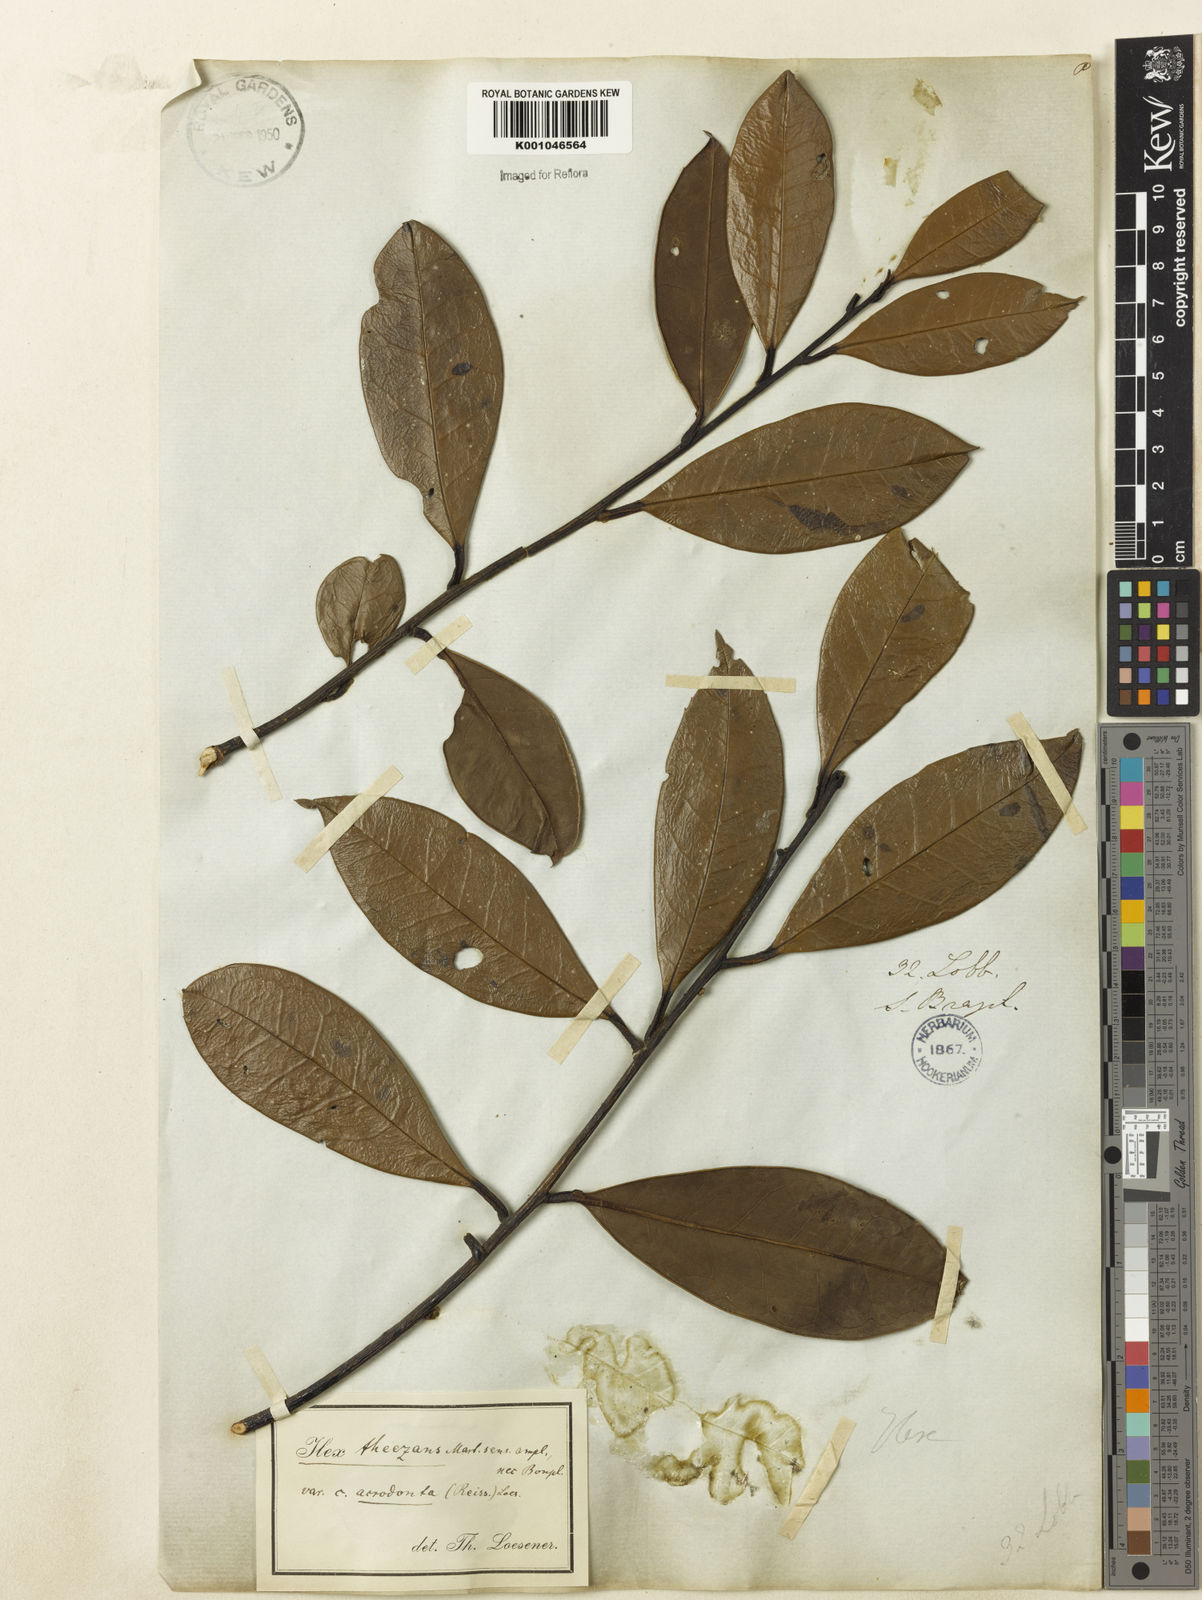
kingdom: Plantae
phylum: Tracheophyta
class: Magnoliopsida
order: Aquifoliales
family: Aquifoliaceae
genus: Ilex
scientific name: Ilex psammophila
